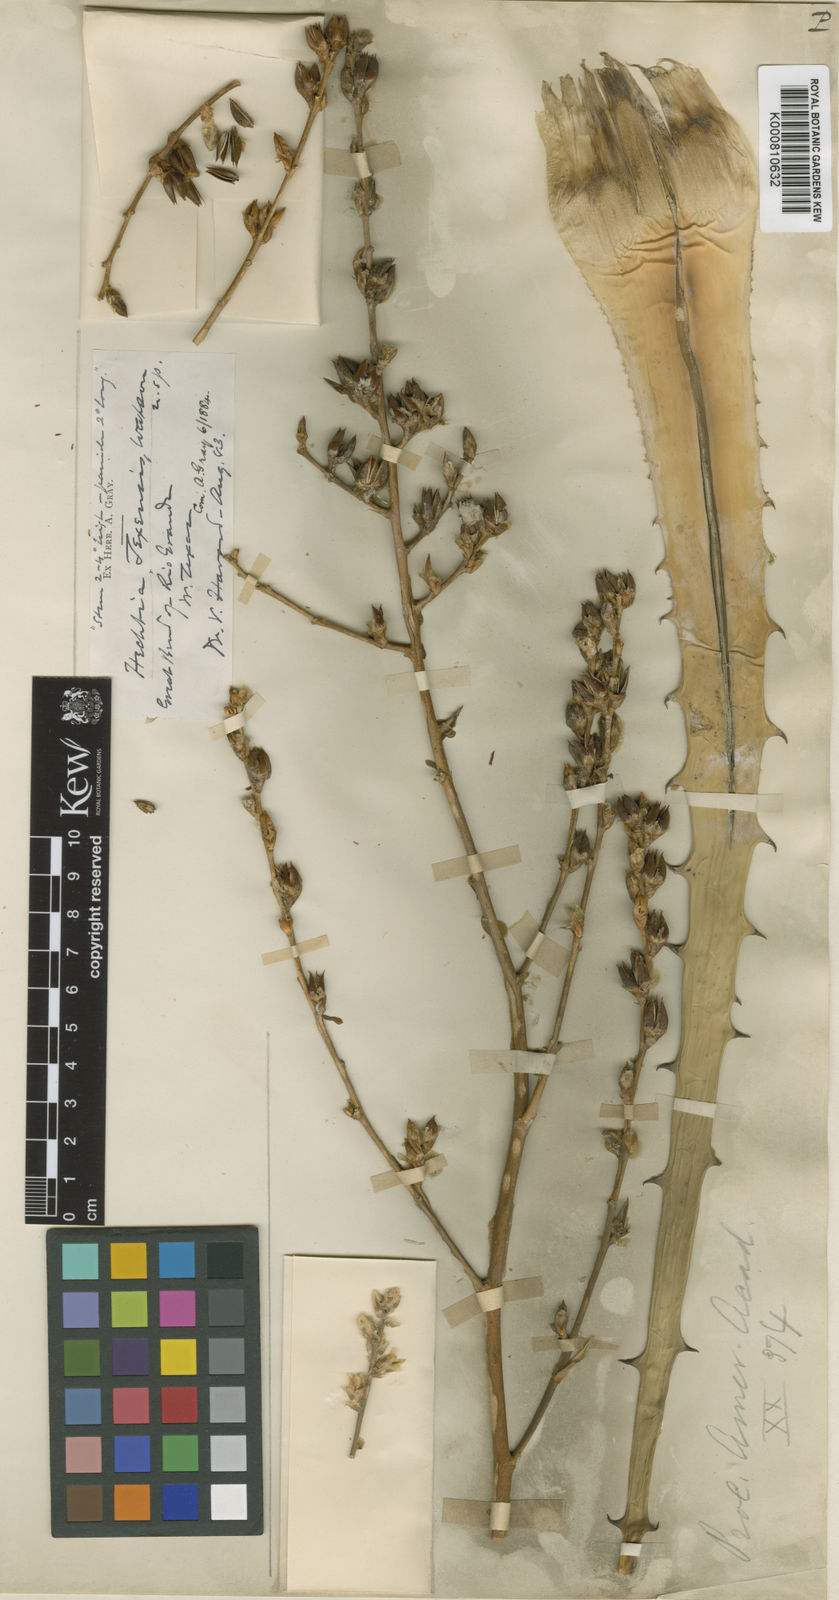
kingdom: Plantae
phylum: Tracheophyta
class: Liliopsida
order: Poales
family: Bromeliaceae
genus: Hechtia
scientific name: Hechtia texensis
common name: False agave
